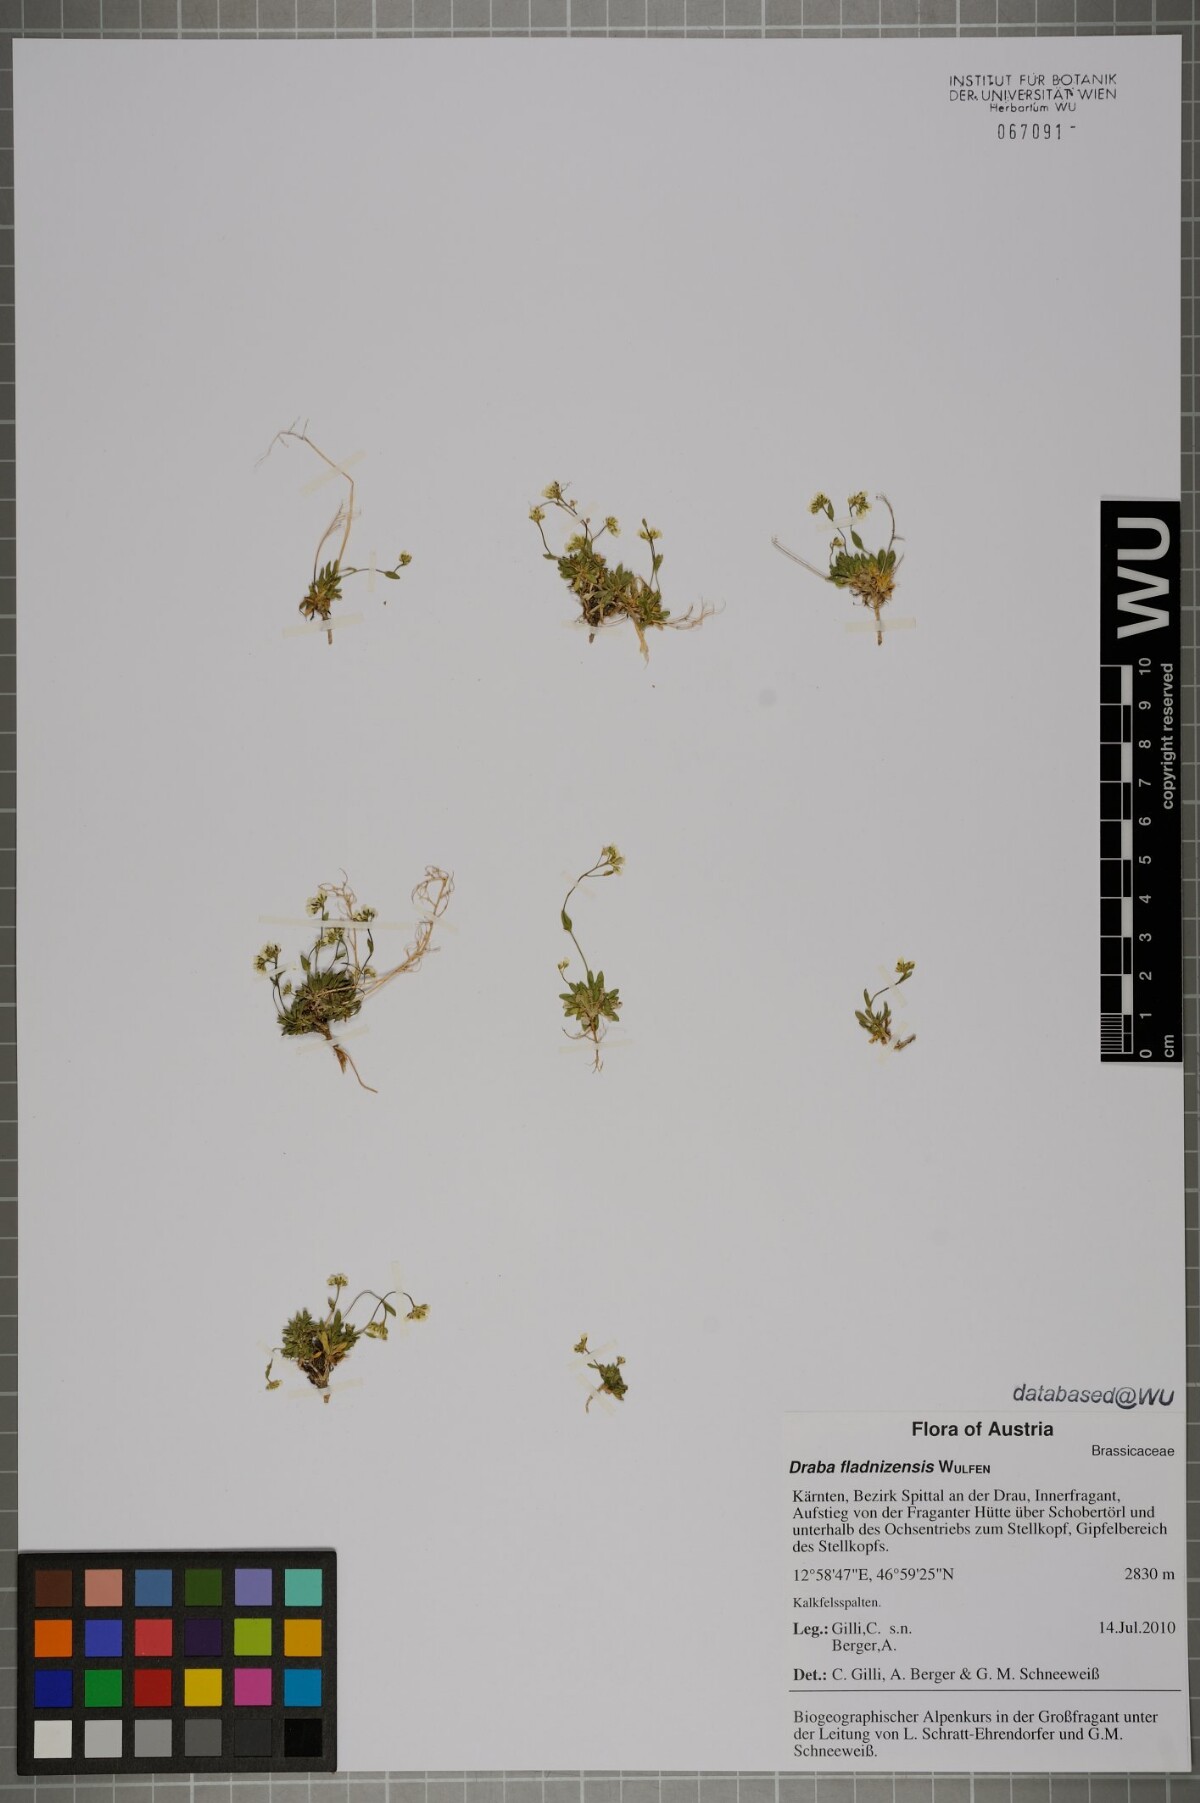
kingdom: Plantae
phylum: Tracheophyta
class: Magnoliopsida
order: Brassicales
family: Brassicaceae
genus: Draba
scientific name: Draba fladnizensis
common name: Austrian draba
